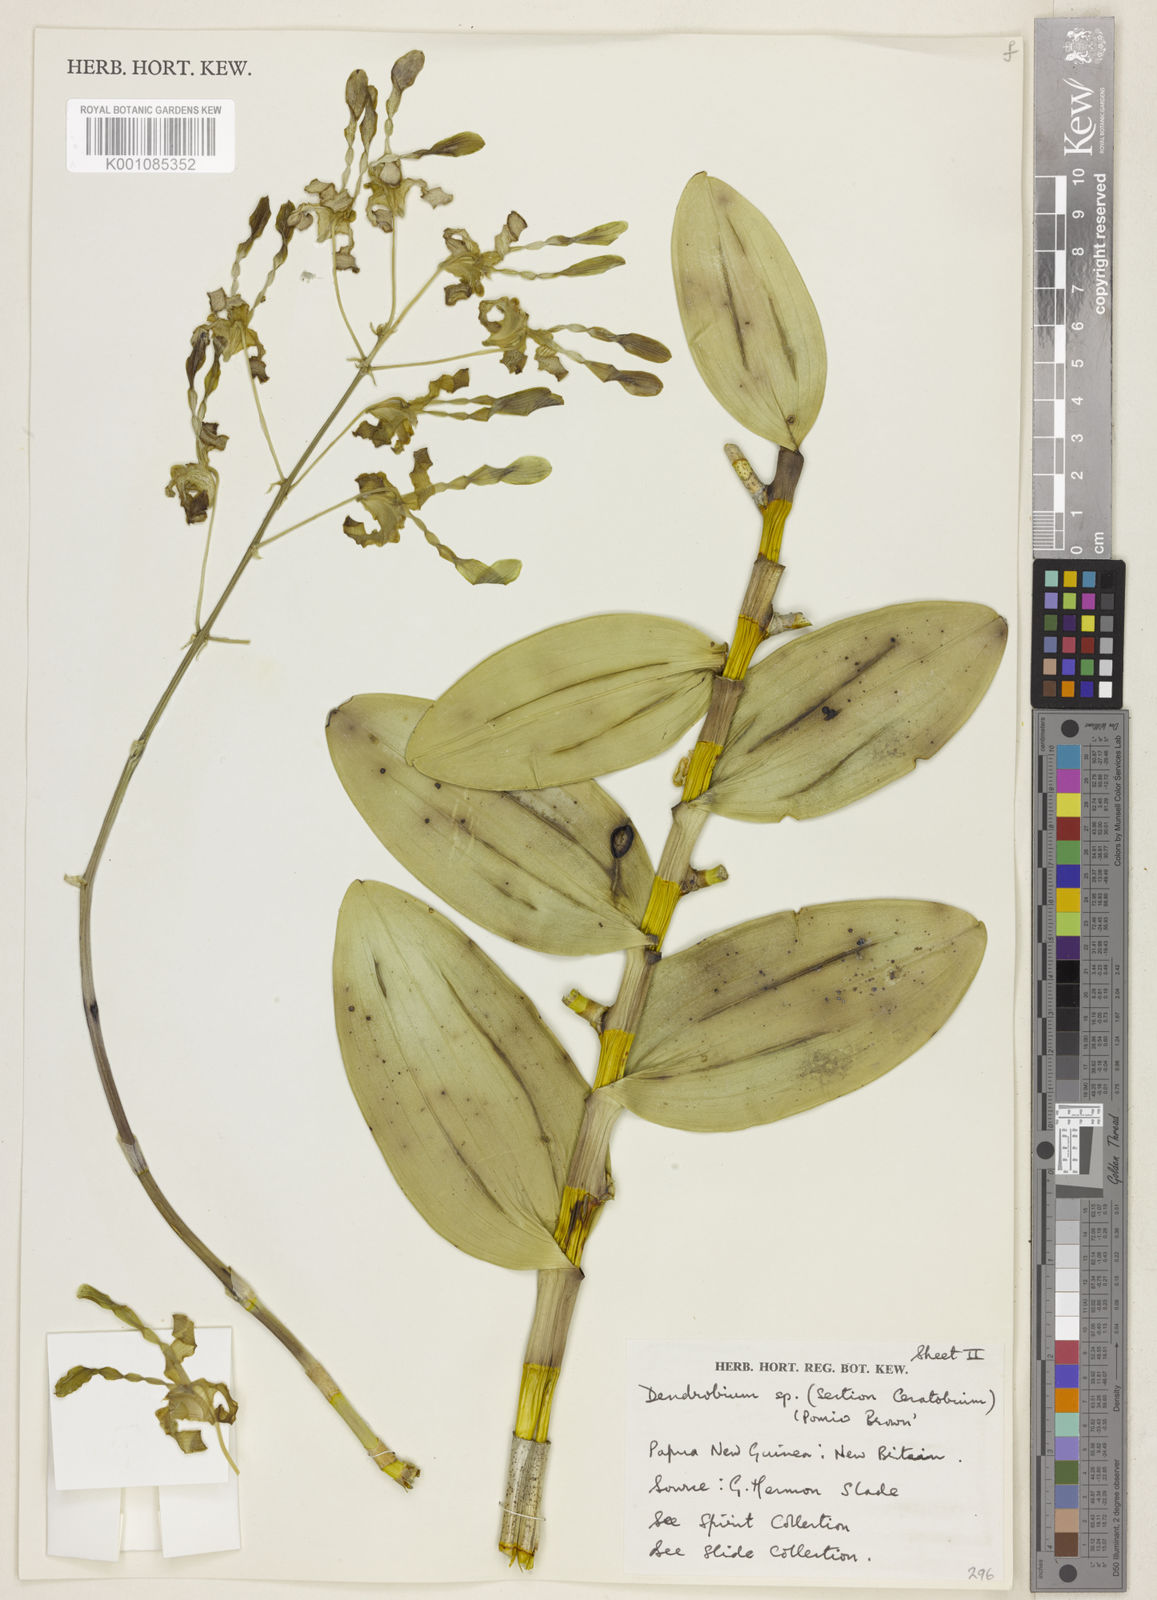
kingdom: Plantae
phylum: Tracheophyta
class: Liliopsida
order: Asparagales
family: Orchidaceae
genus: Dendrobium
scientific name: Dendrobium helix
